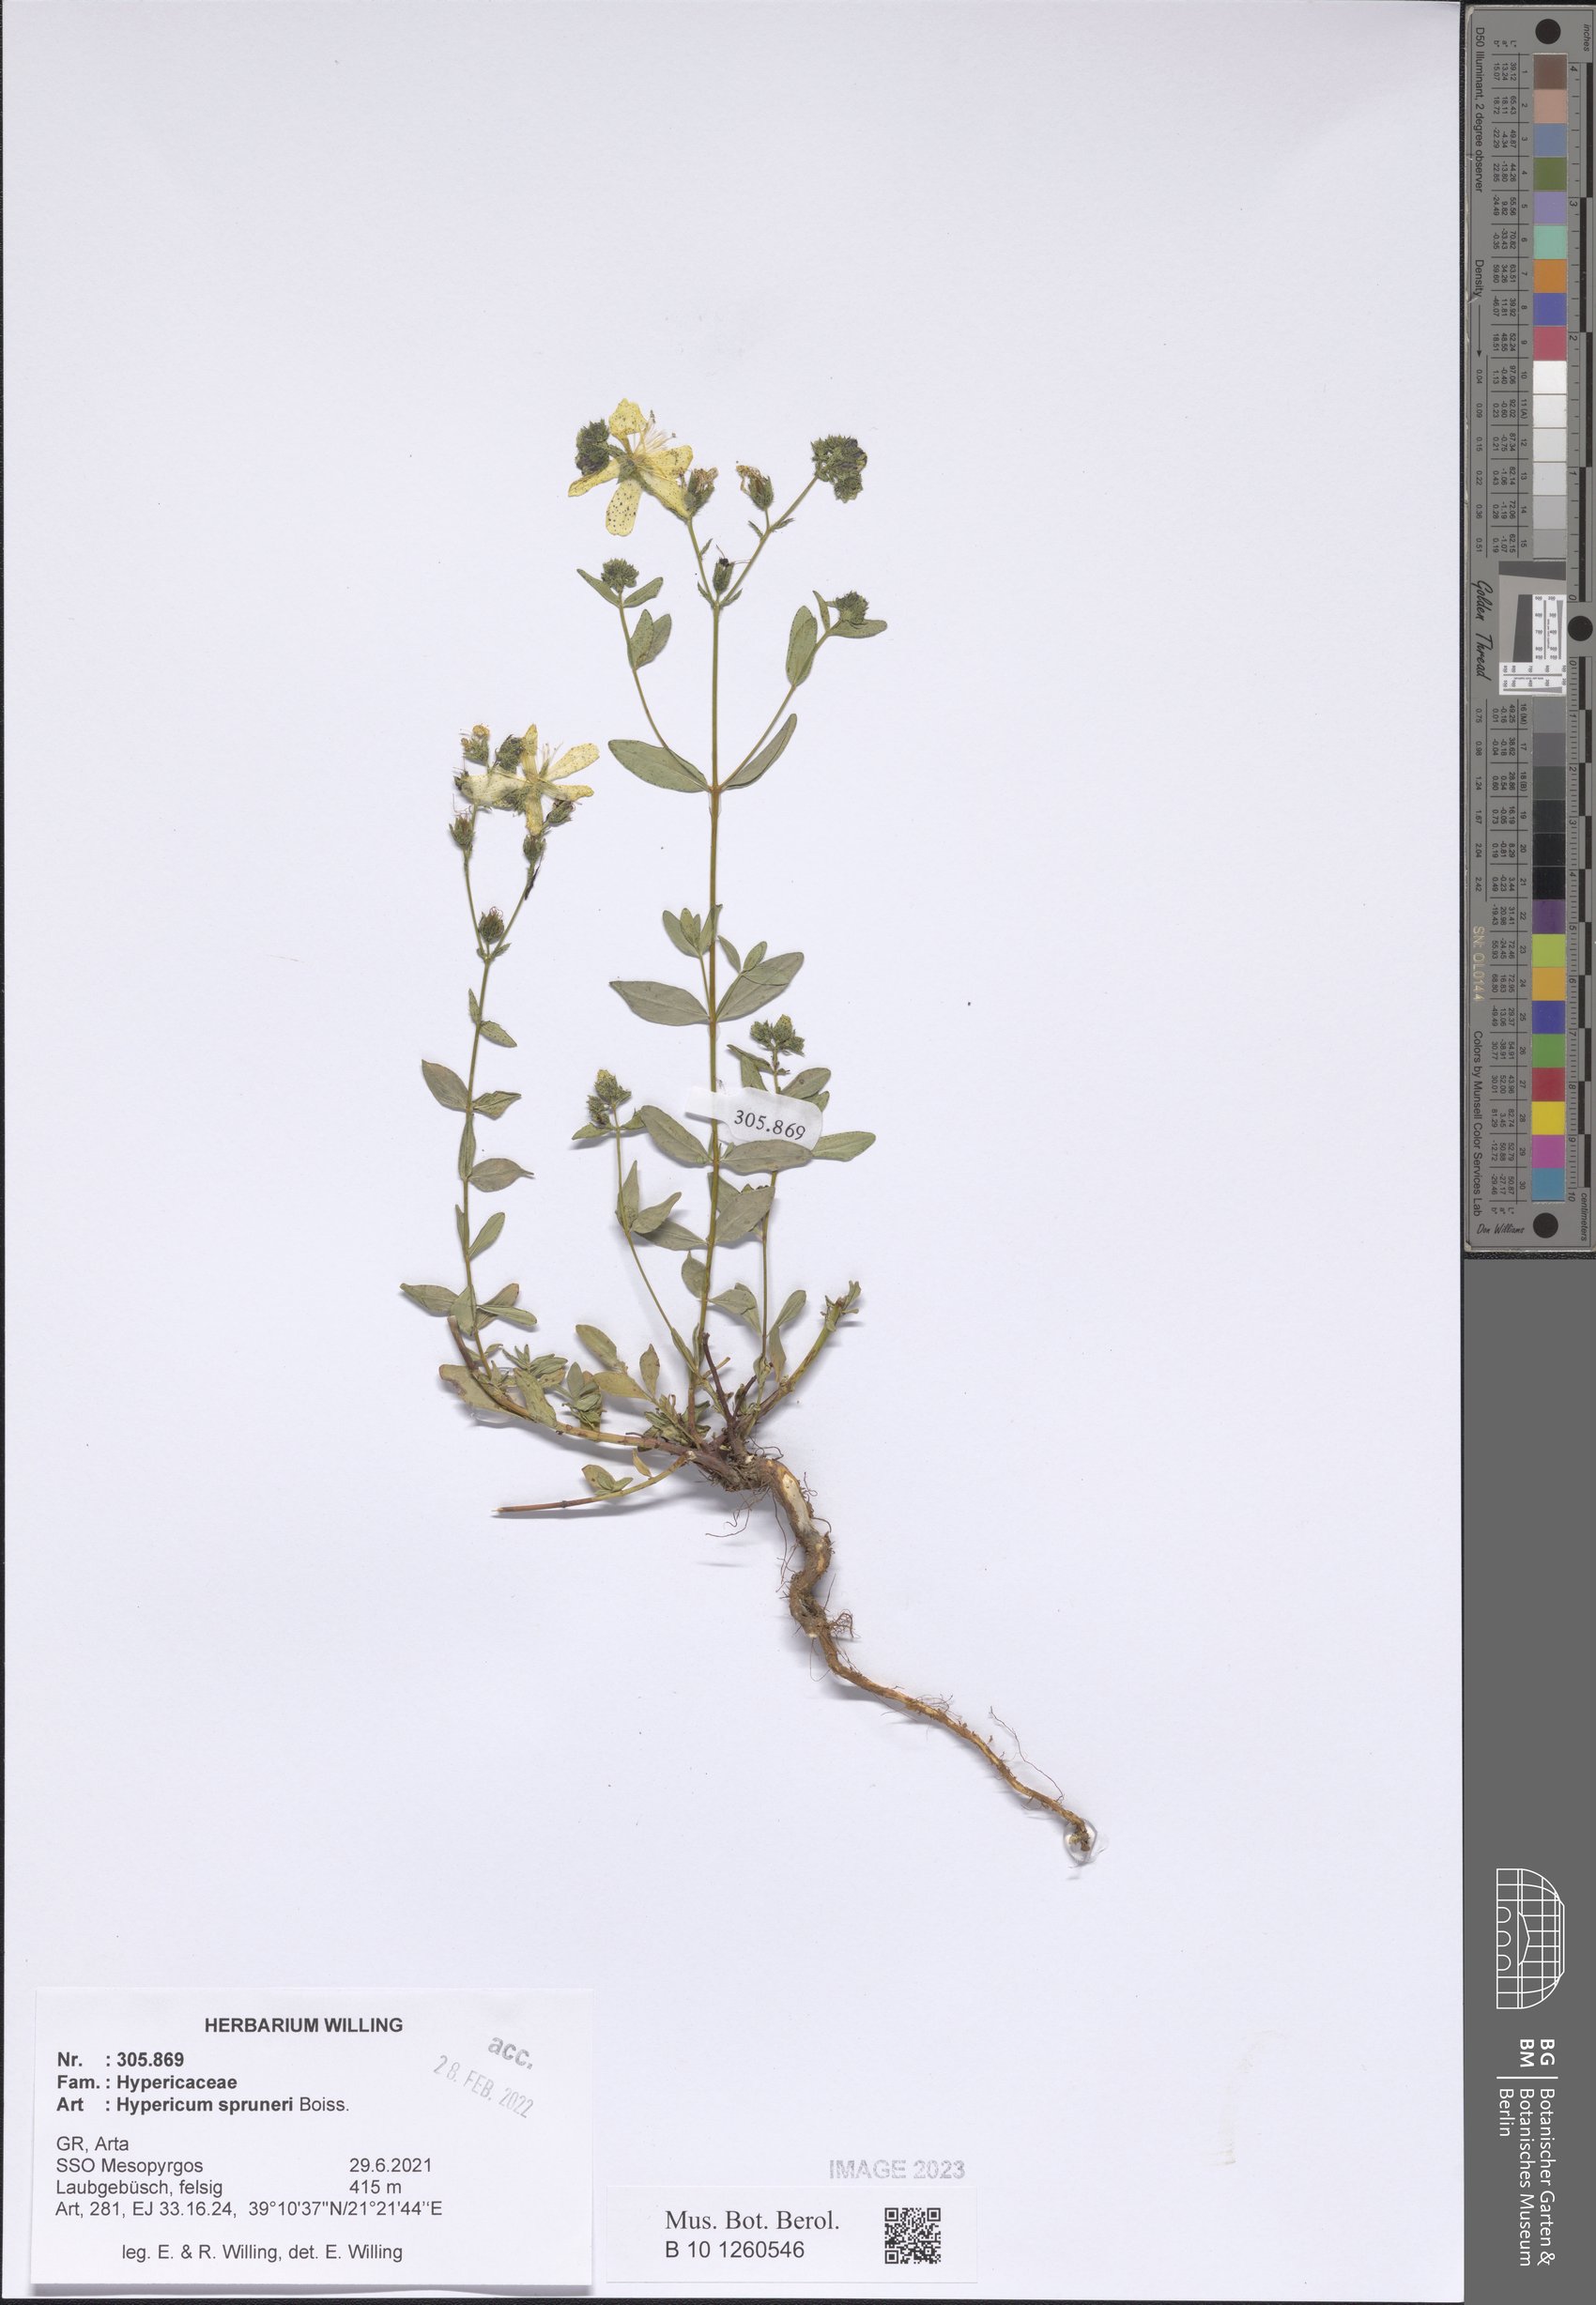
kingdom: Plantae
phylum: Tracheophyta
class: Magnoliopsida
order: Malpighiales
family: Hypericaceae
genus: Hypericum
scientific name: Hypericum spruneri
